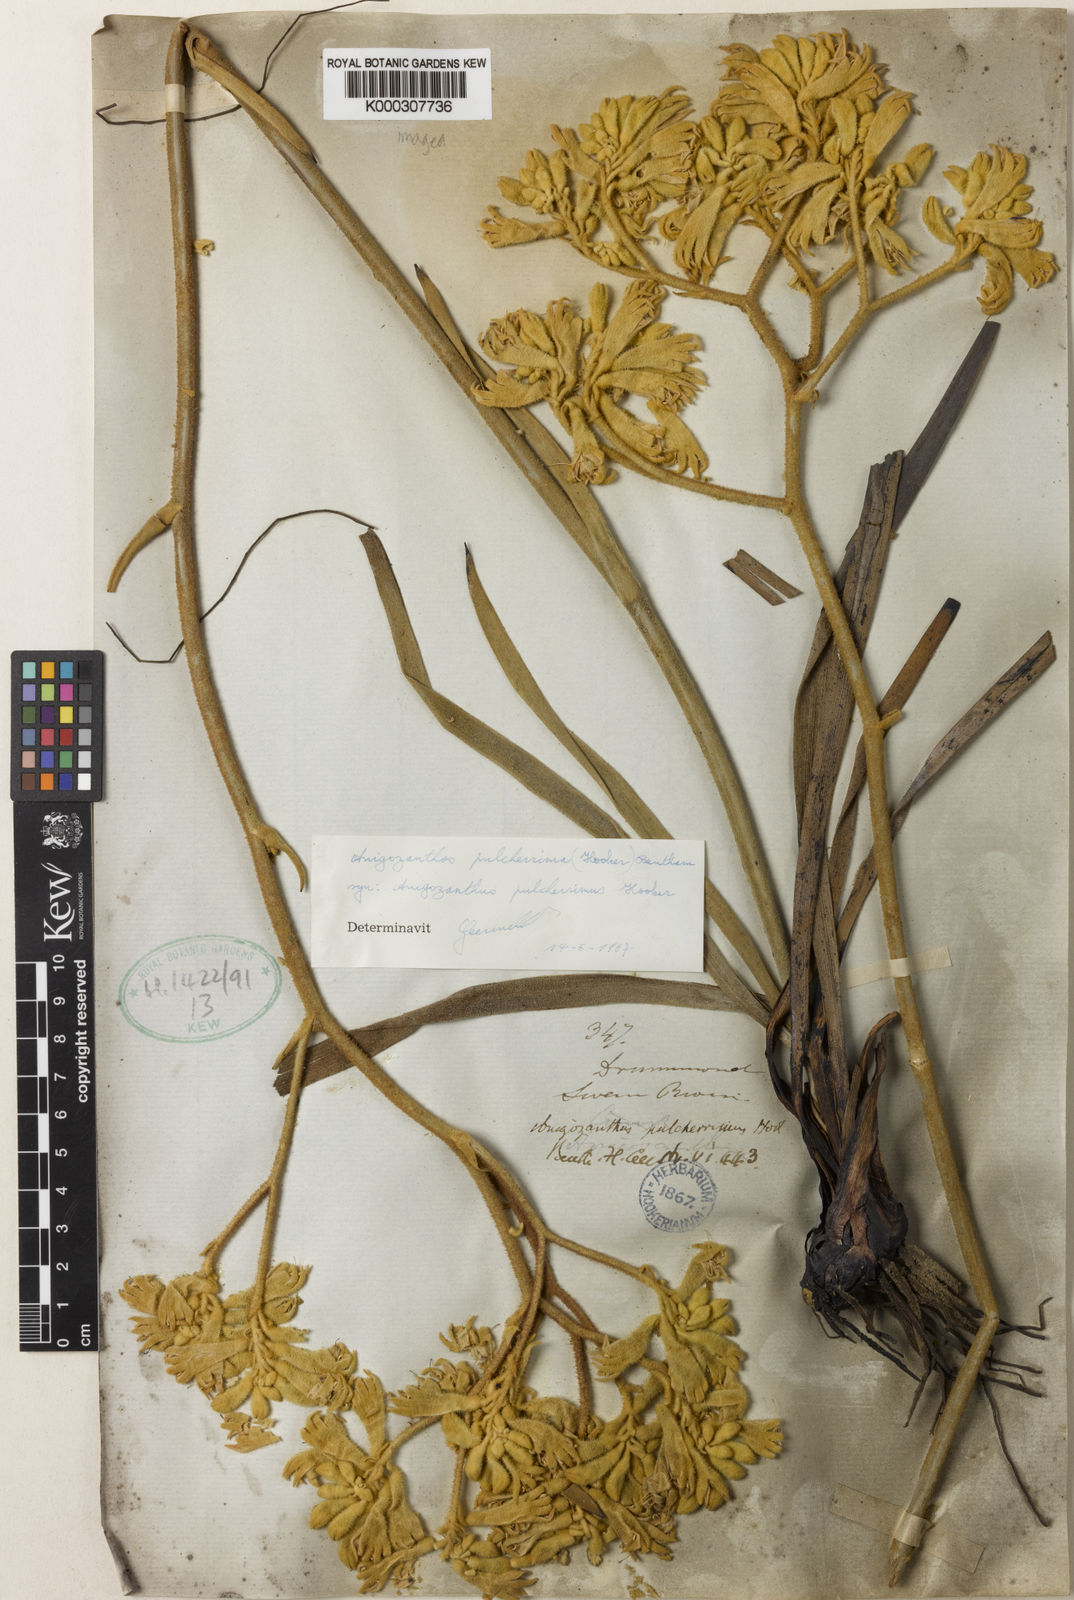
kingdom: Plantae
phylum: Tracheophyta
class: Liliopsida
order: Commelinales
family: Haemodoraceae
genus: Anigozanthos
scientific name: Anigozanthos pulcherrimus
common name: Yellow kangaroo-paw
